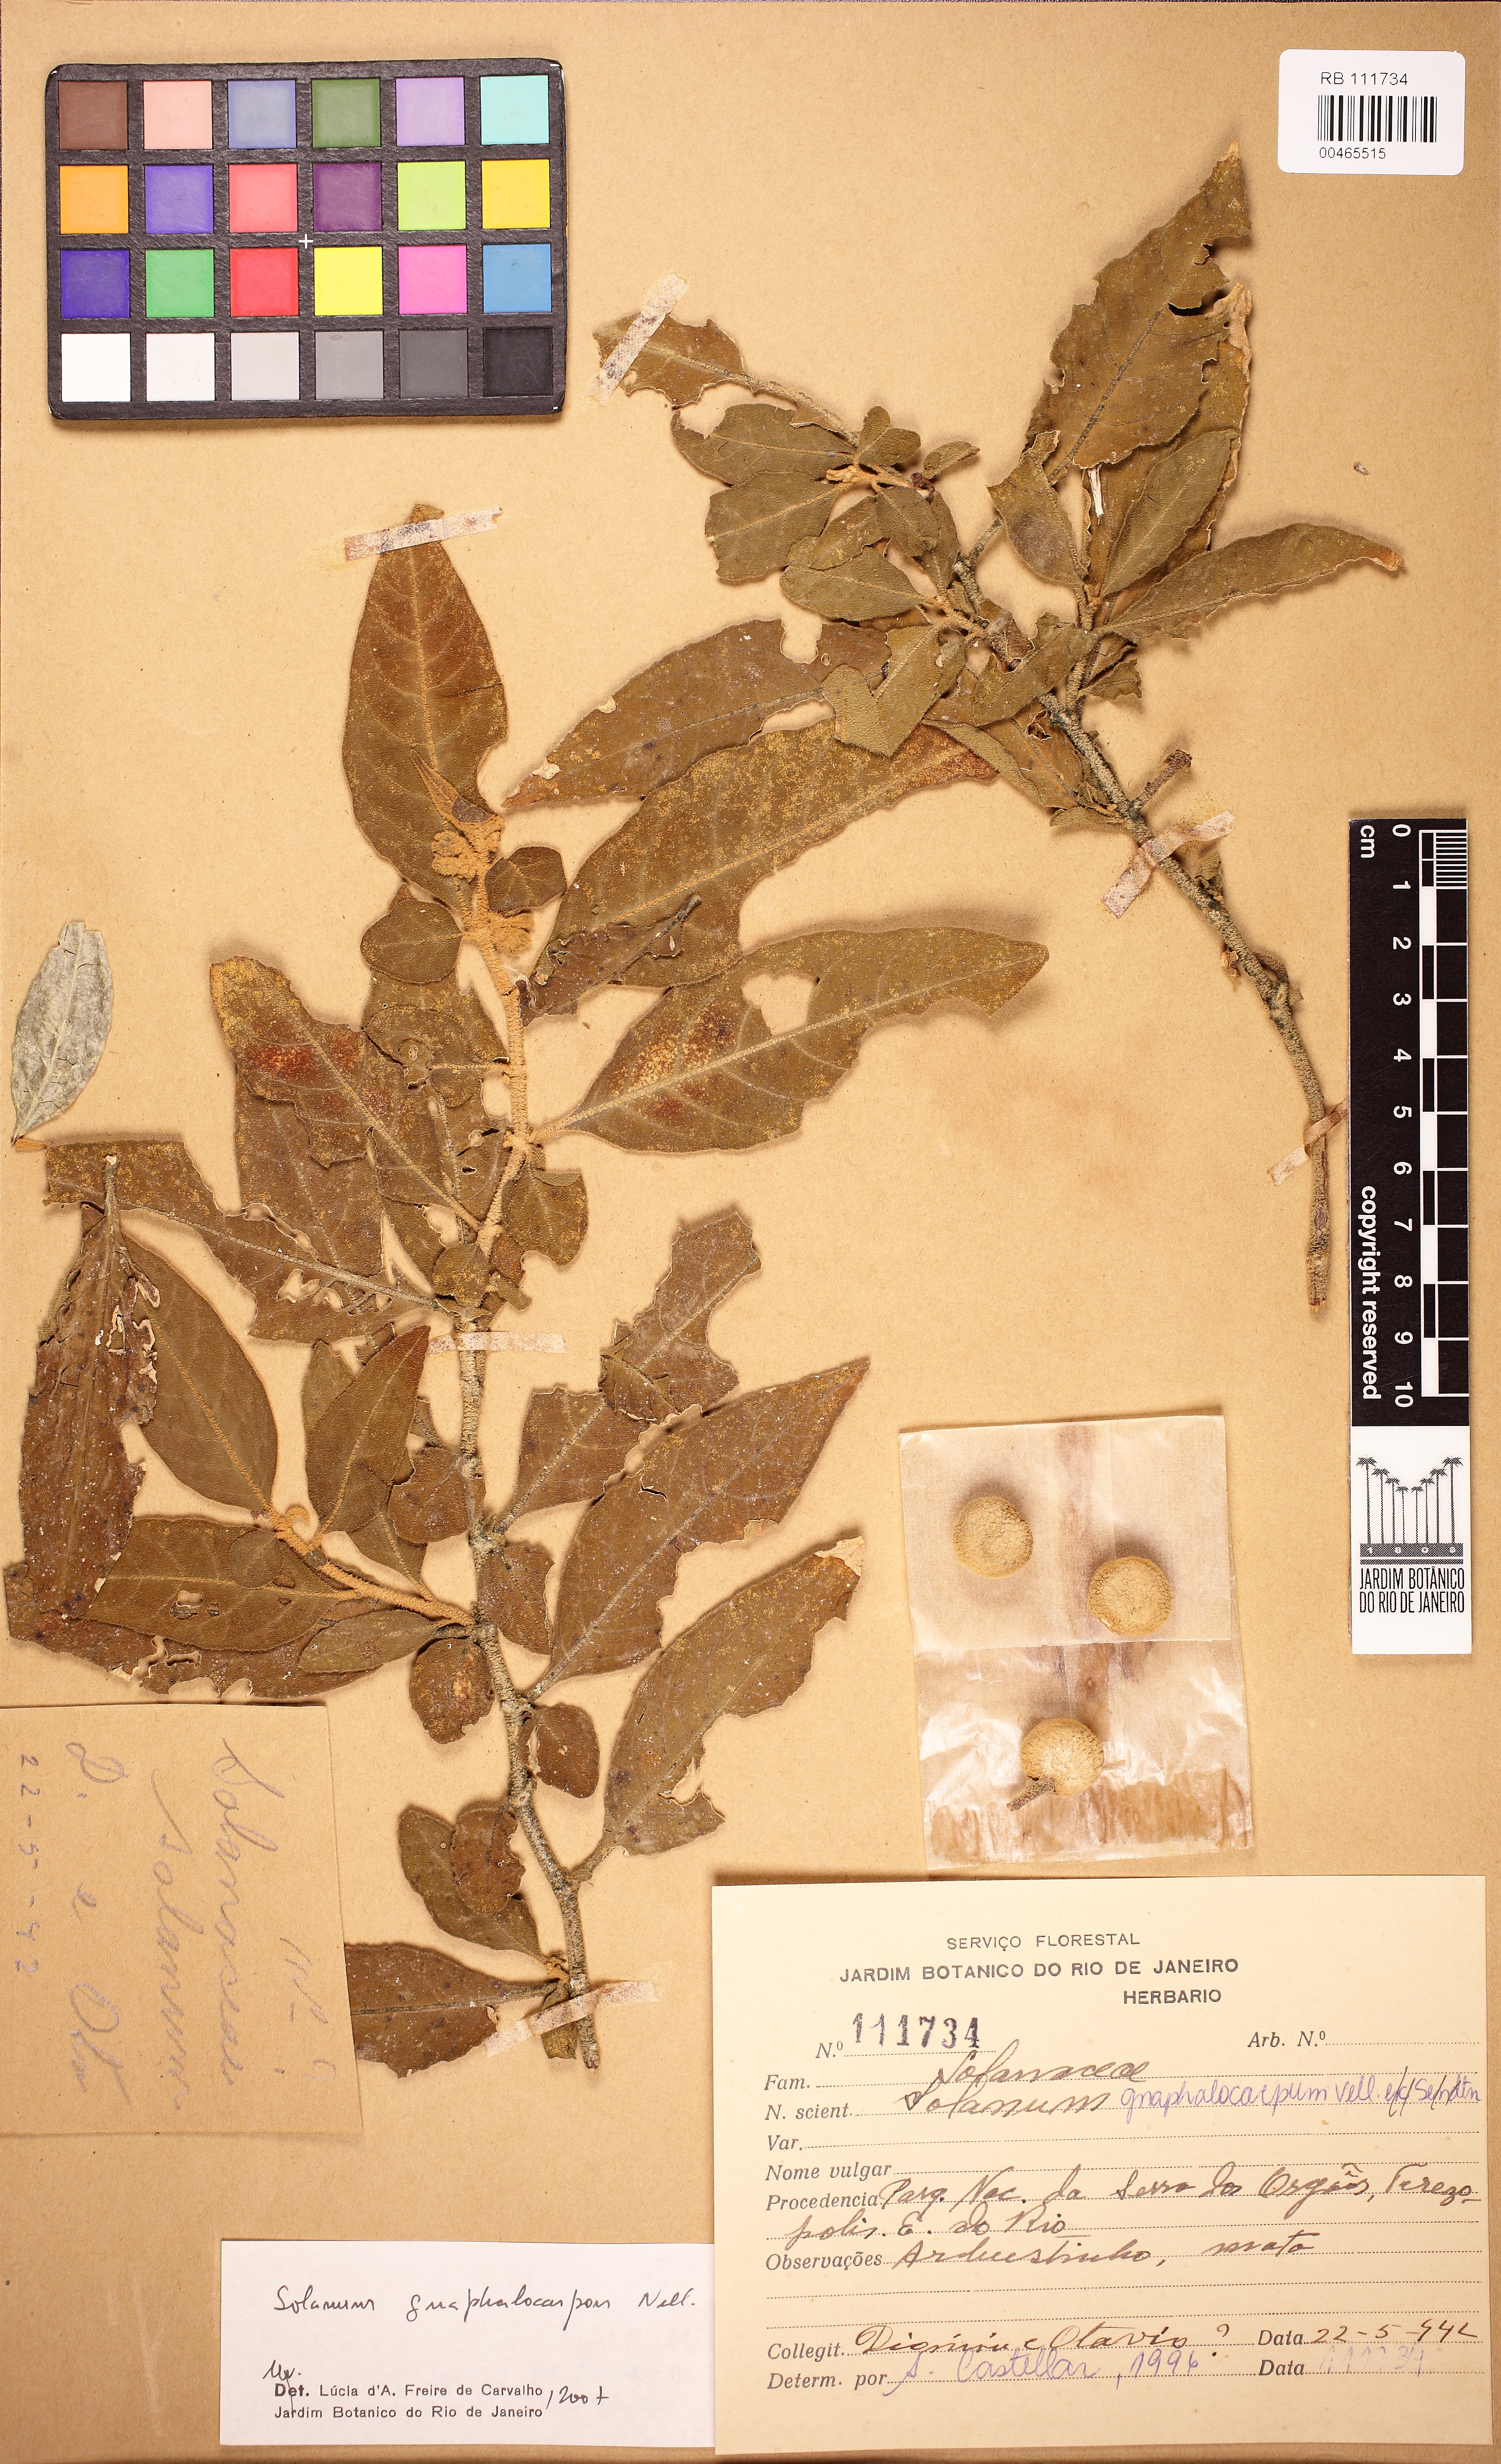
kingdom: Plantae
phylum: Tracheophyta
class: Magnoliopsida
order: Solanales
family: Solanaceae
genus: Solanum
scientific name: Solanum gnaphalocarpum
